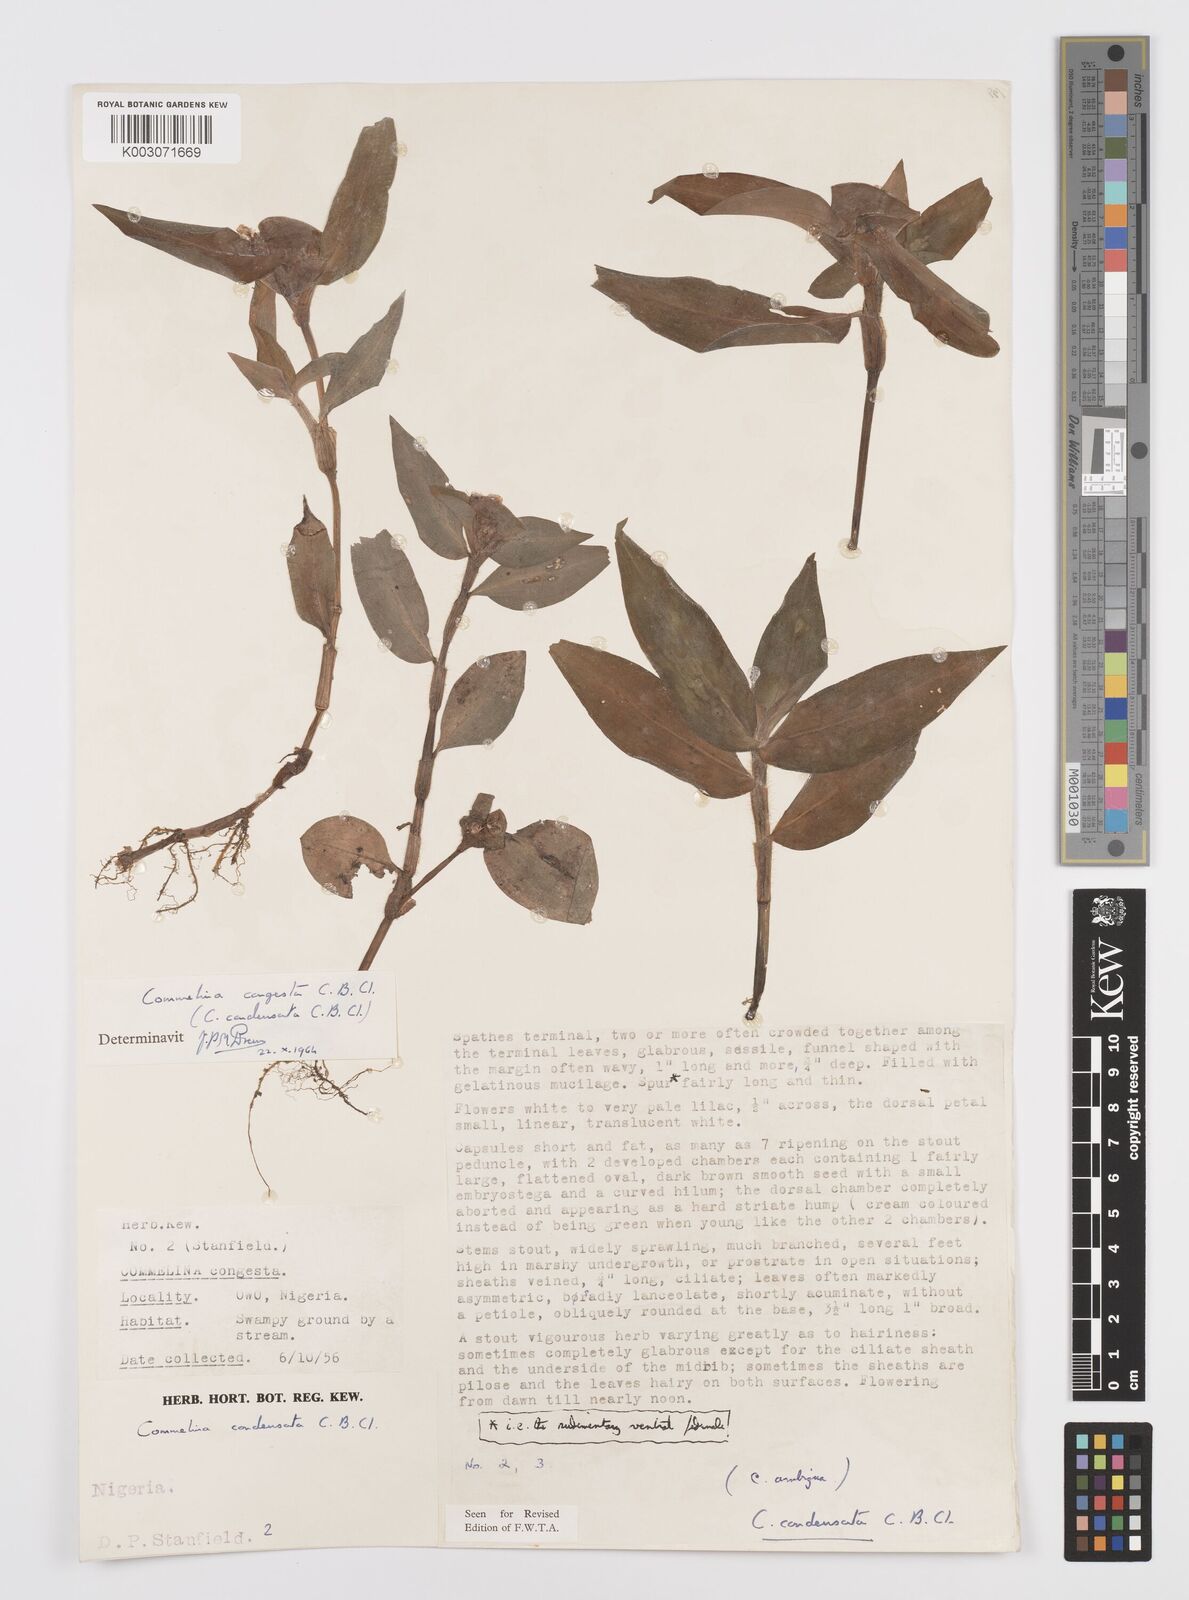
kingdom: Plantae
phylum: Tracheophyta
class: Liliopsida
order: Commelinales
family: Commelinaceae
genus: Commelina
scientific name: Commelina congesta
